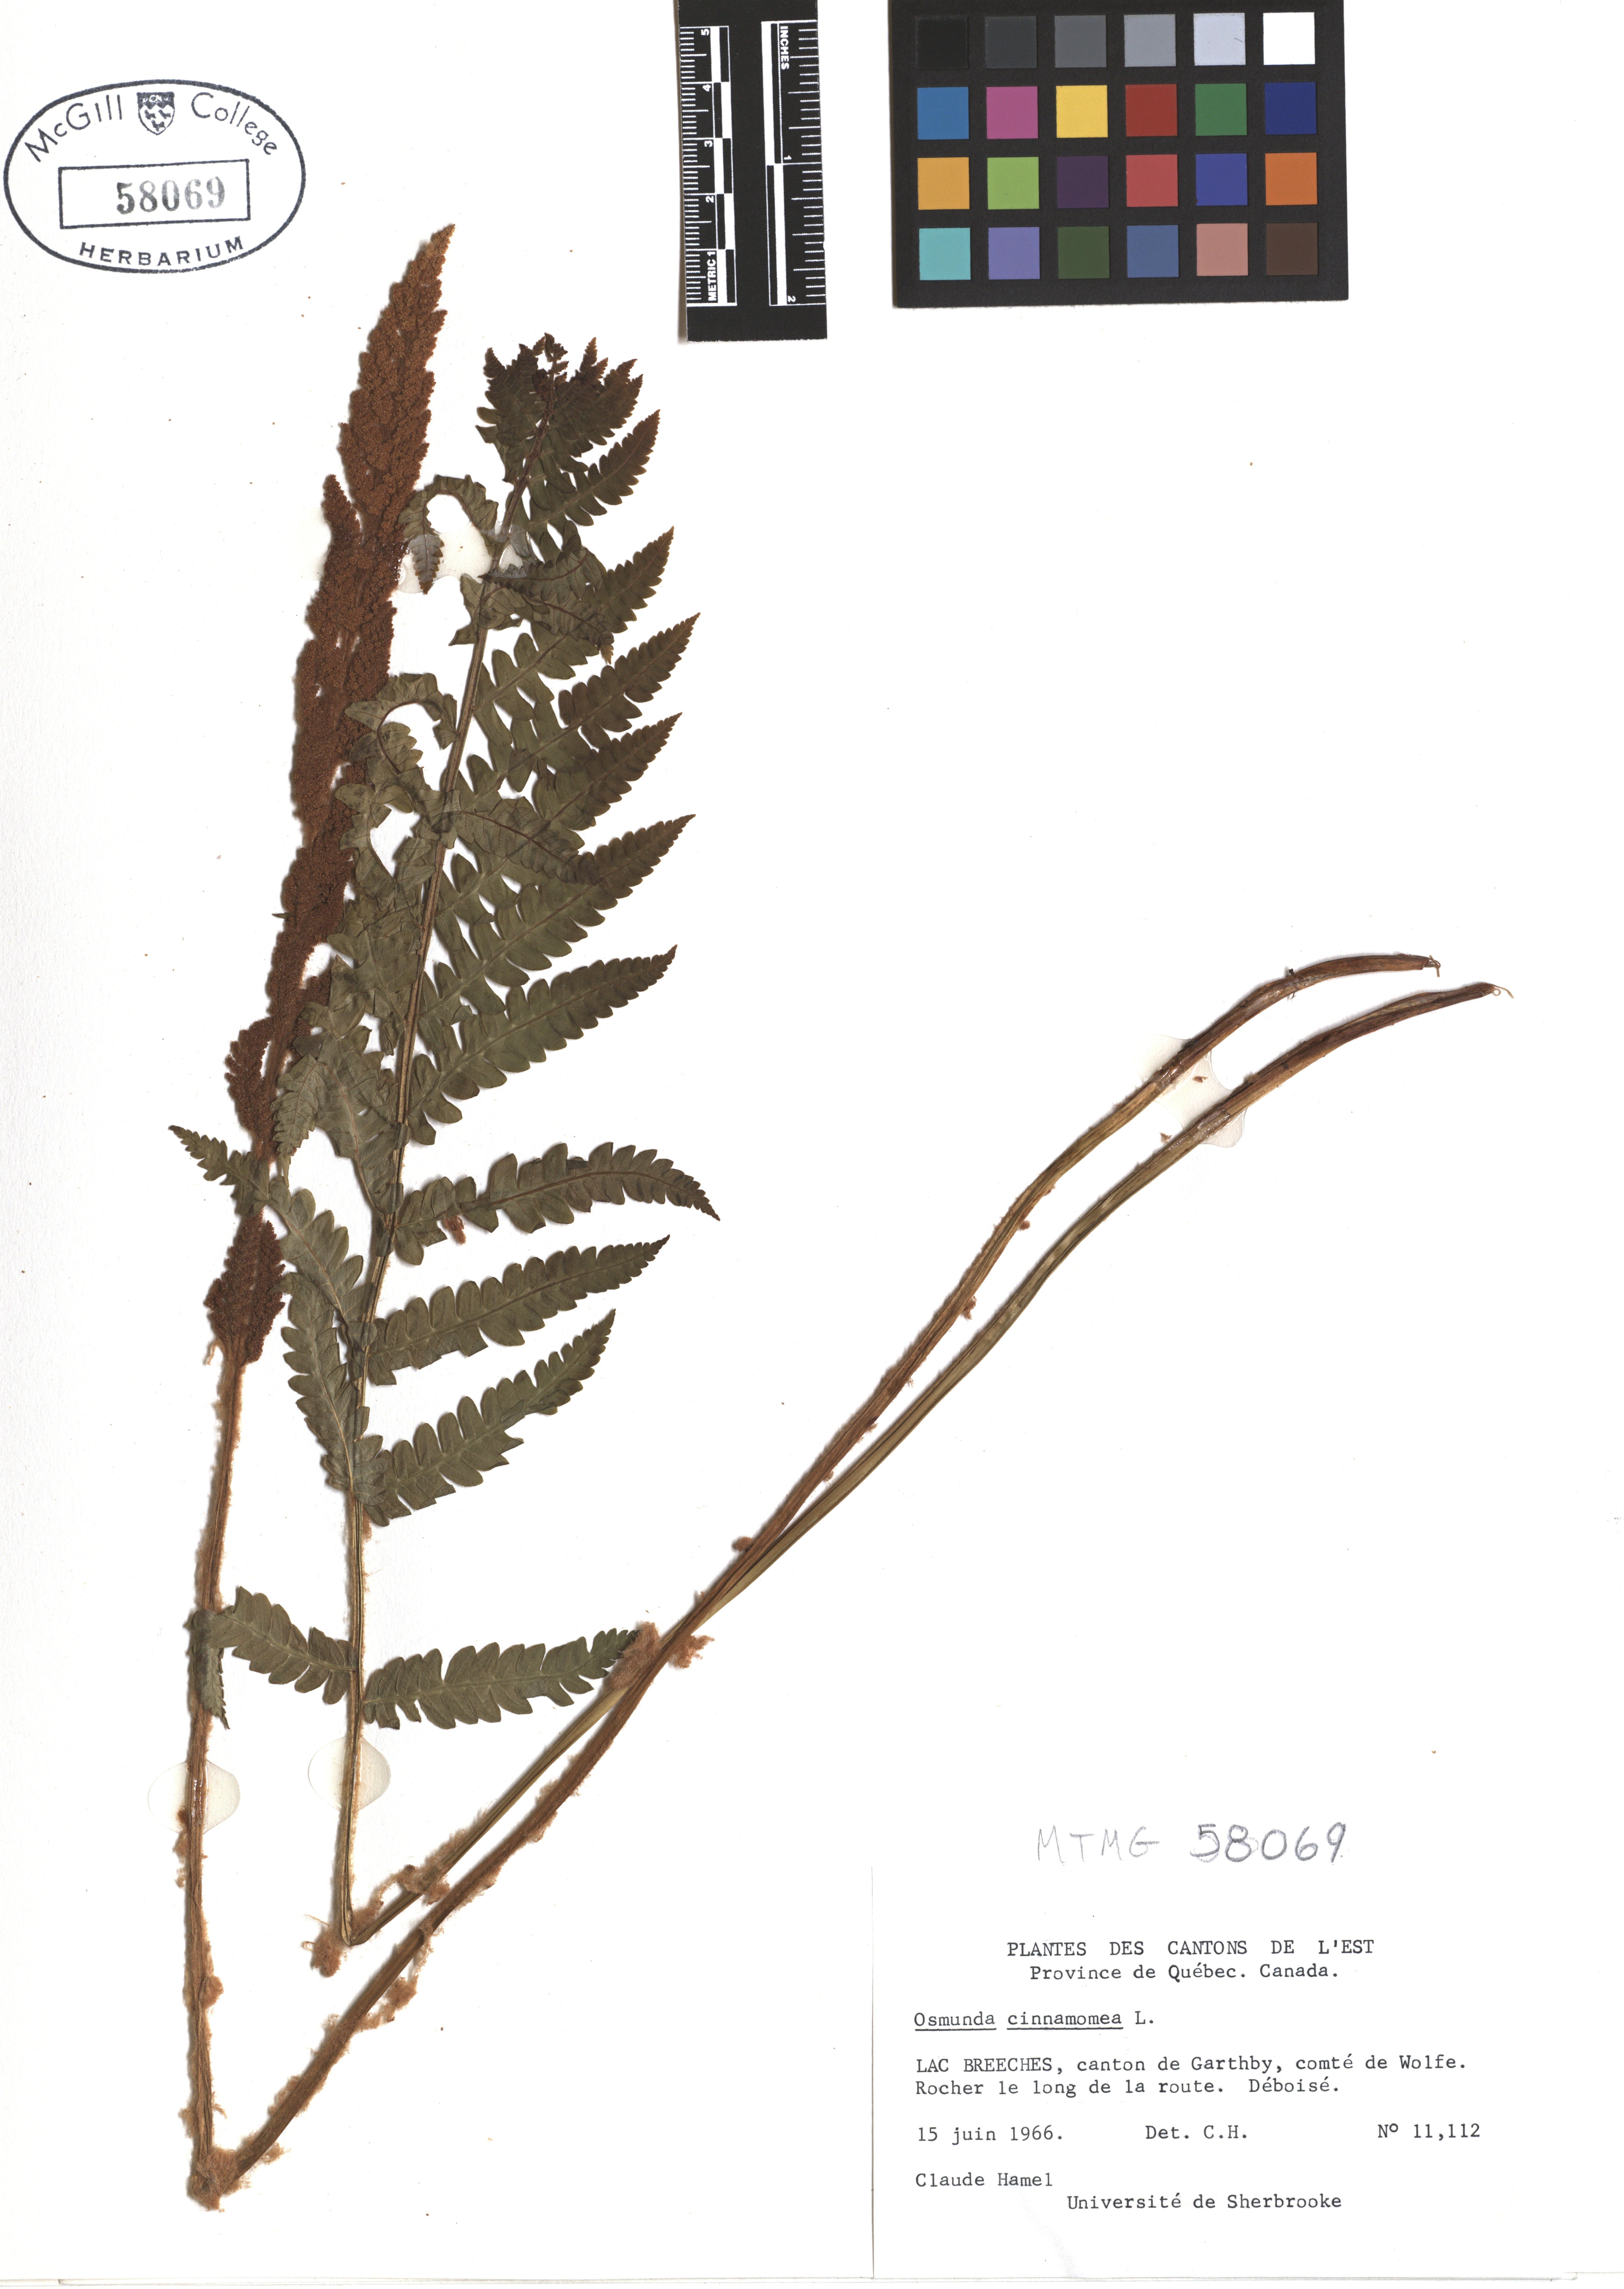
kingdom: Plantae
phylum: Tracheophyta
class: Polypodiopsida
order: Osmundales
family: Osmundaceae
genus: Osmundastrum
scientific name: Osmundastrum cinnamomeum
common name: Cinnamon fern
